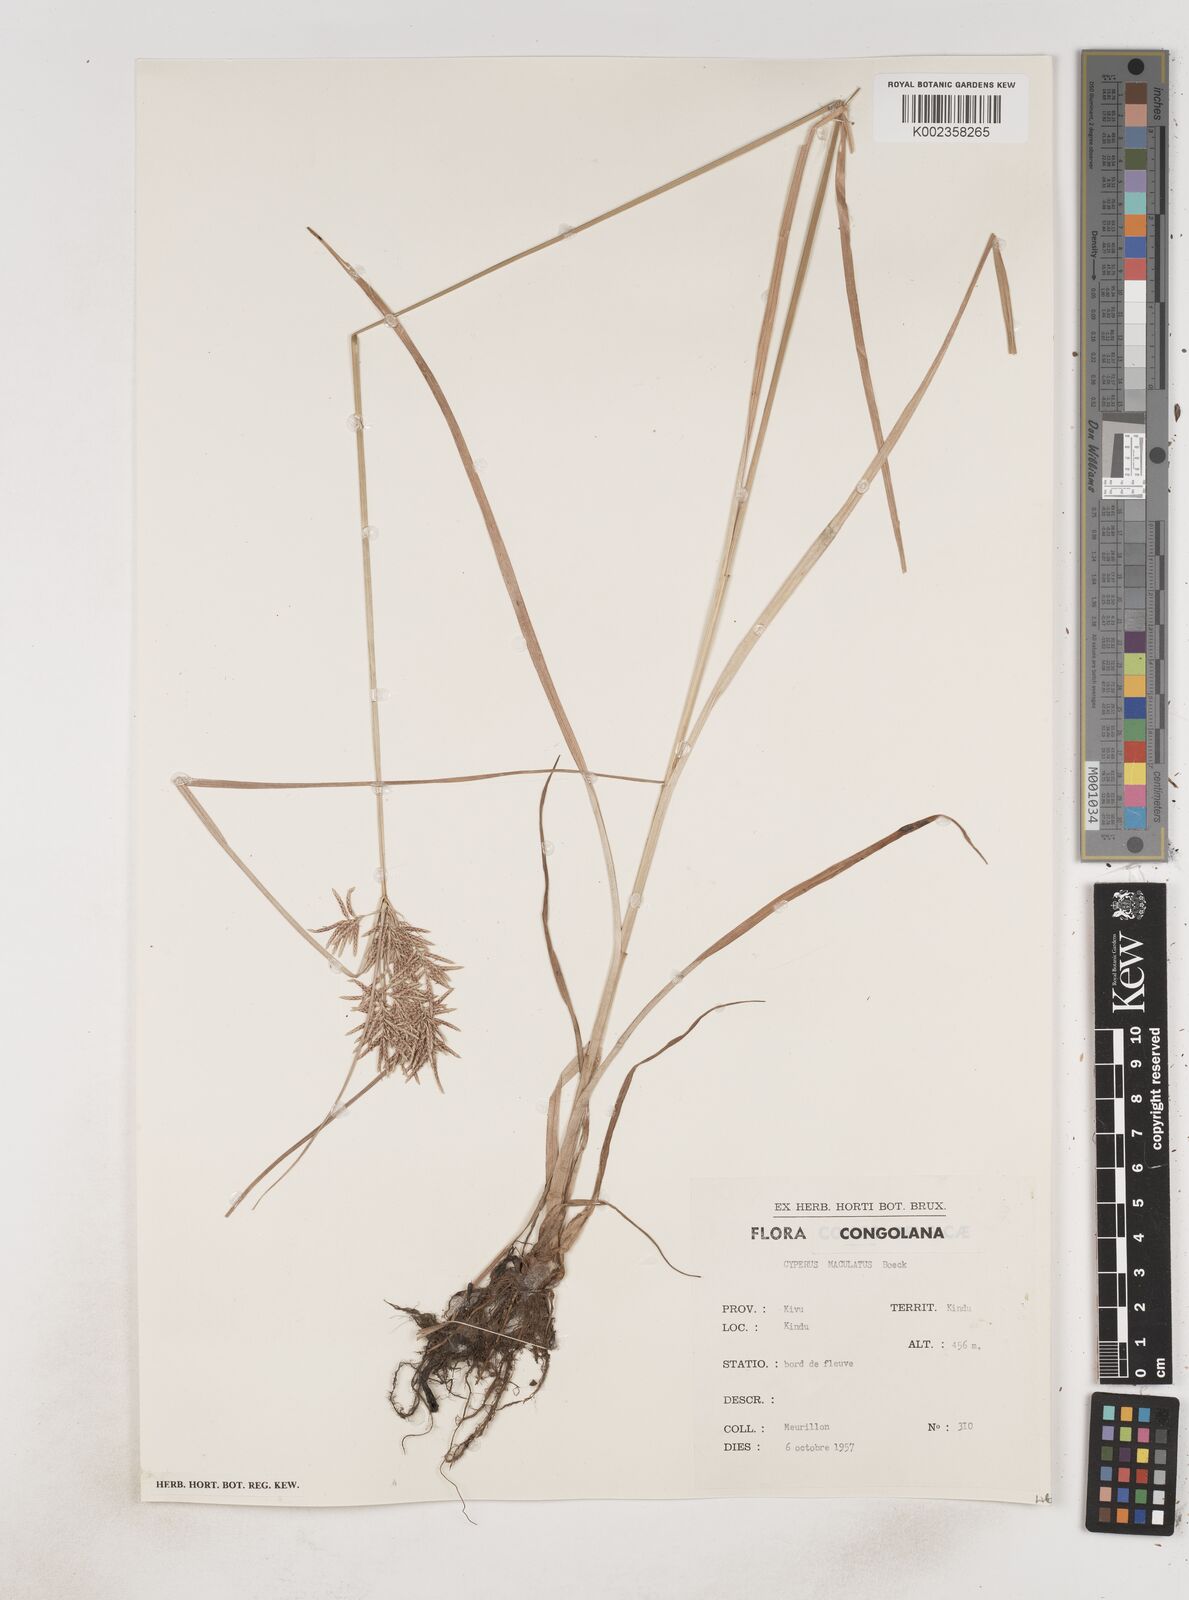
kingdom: Plantae
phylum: Tracheophyta
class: Liliopsida
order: Poales
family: Cyperaceae
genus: Cyperus
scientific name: Cyperus maculatus
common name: Maculated sedge
